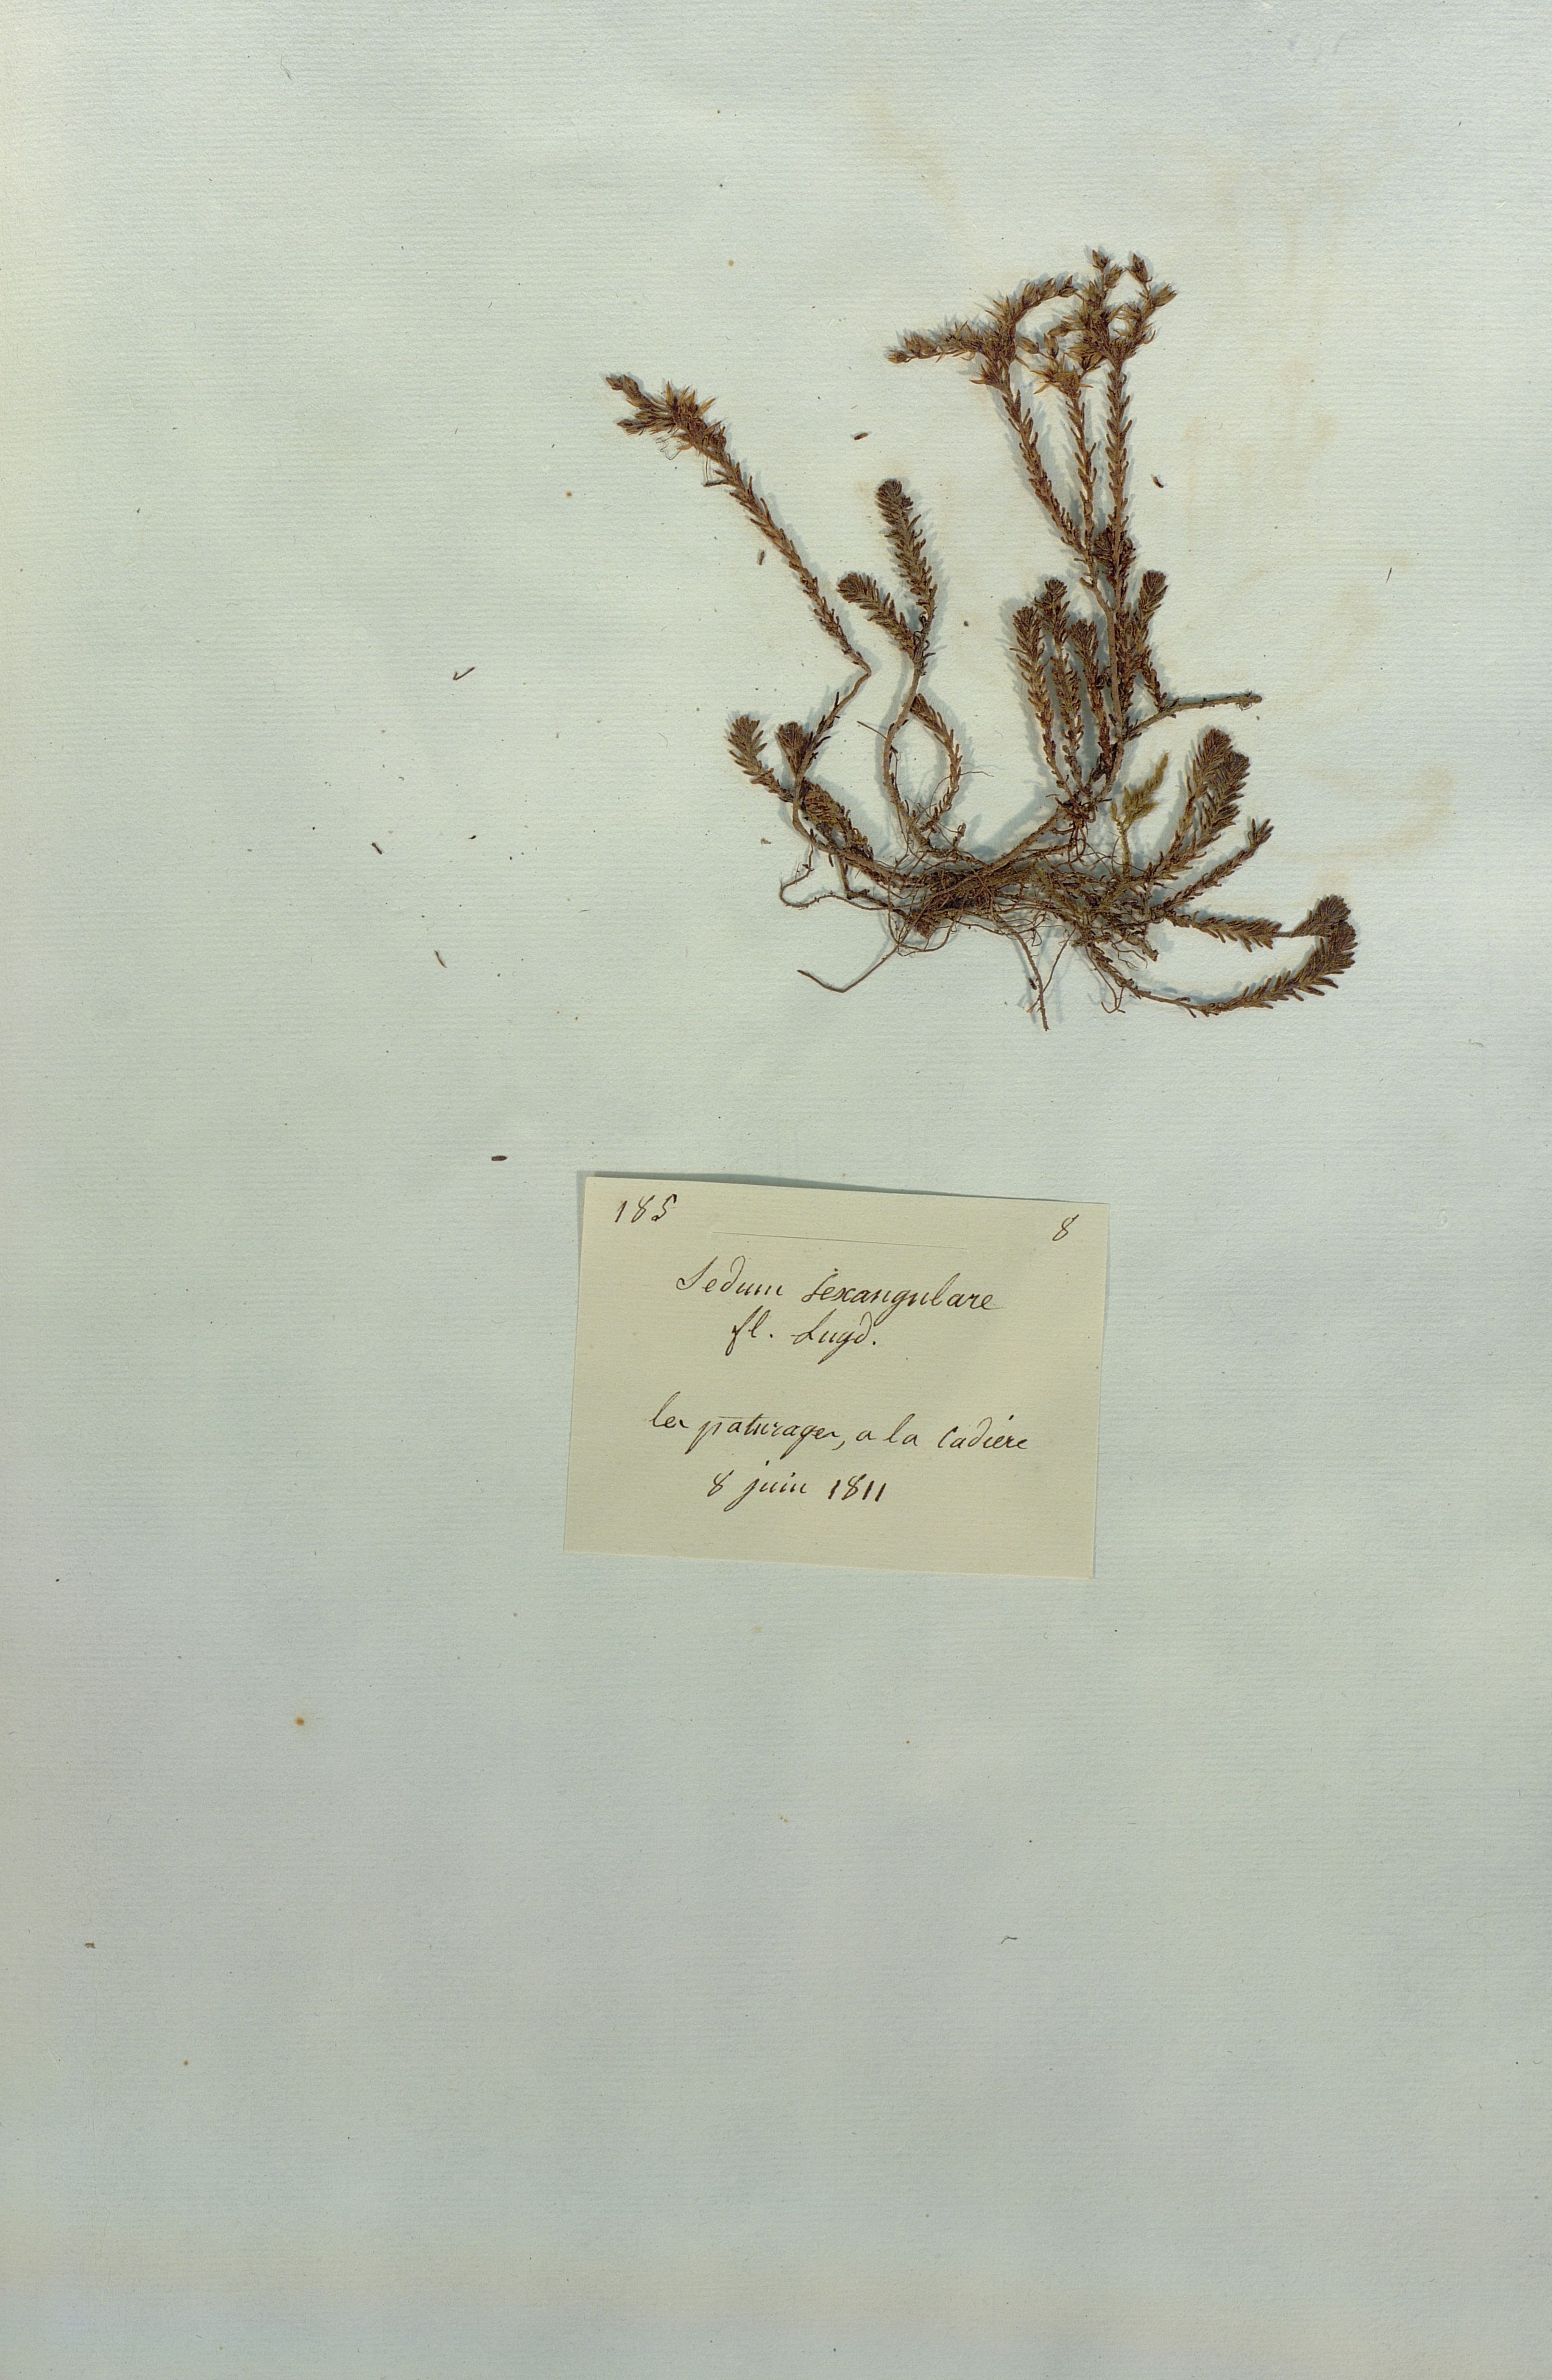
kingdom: Plantae
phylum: Tracheophyta
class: Magnoliopsida
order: Saxifragales
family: Crassulaceae
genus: Sedum
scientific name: Sedum sexangulare
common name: Tasteless stonecrop
